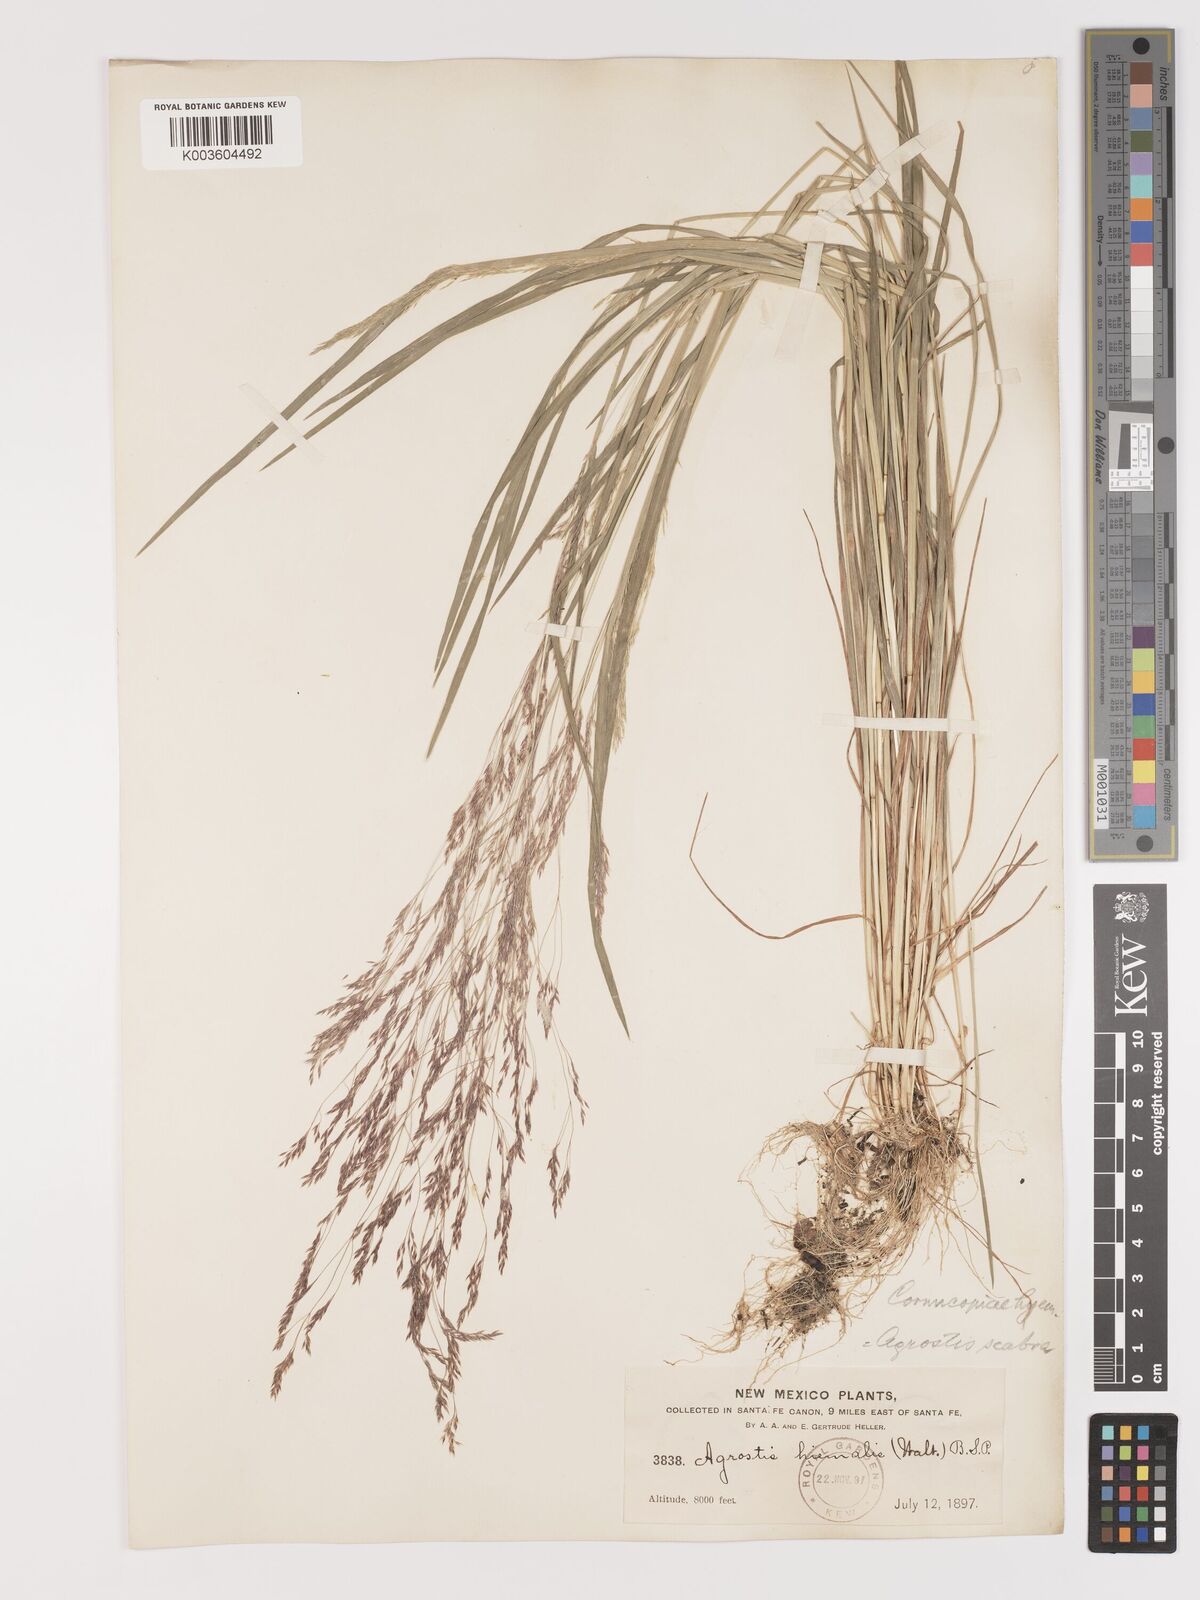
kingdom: Plantae
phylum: Tracheophyta
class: Liliopsida
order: Poales
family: Poaceae
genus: Agrostis
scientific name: Agrostis hyemalis
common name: Small bent
